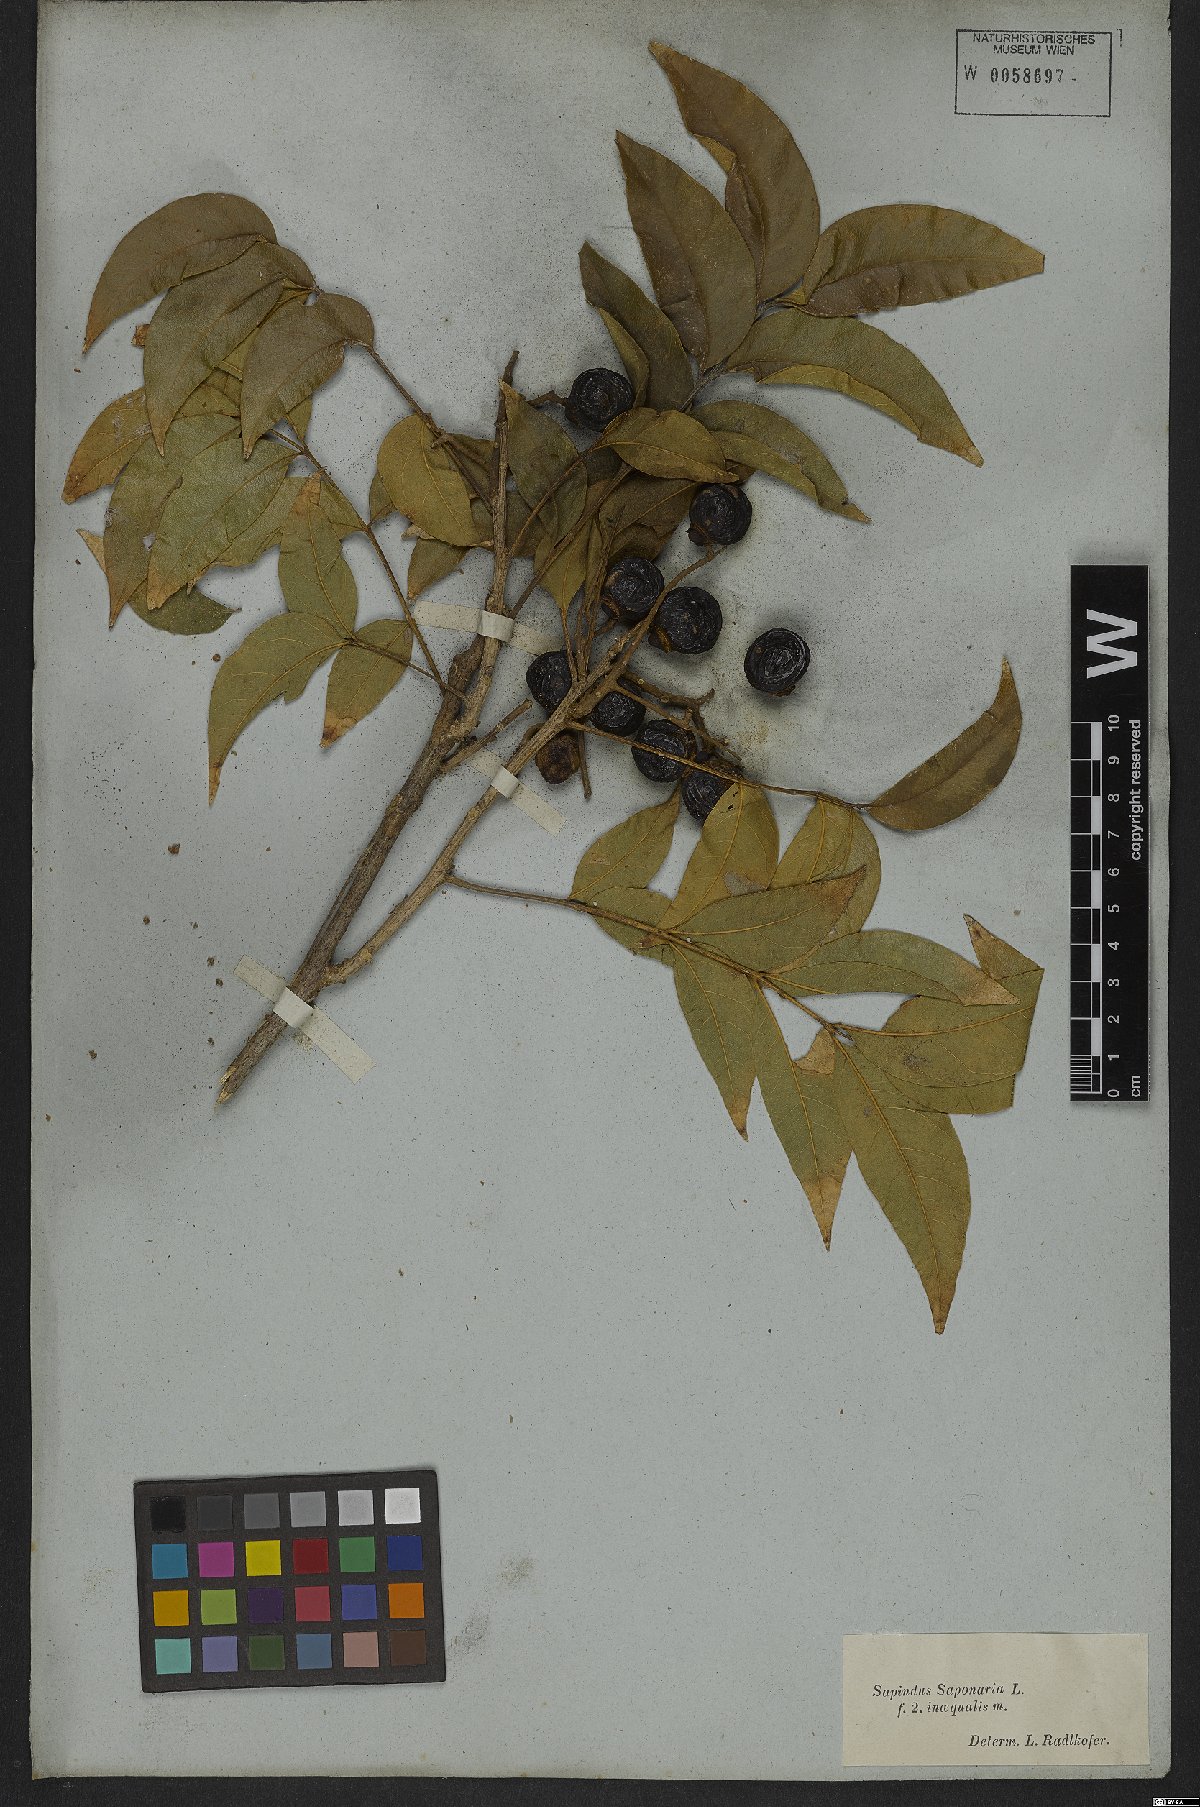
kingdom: Plantae
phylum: Tracheophyta
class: Magnoliopsida
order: Sapindales
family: Sapindaceae
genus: Sapindus
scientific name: Sapindus saponaria
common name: Wingleaf soapberry
